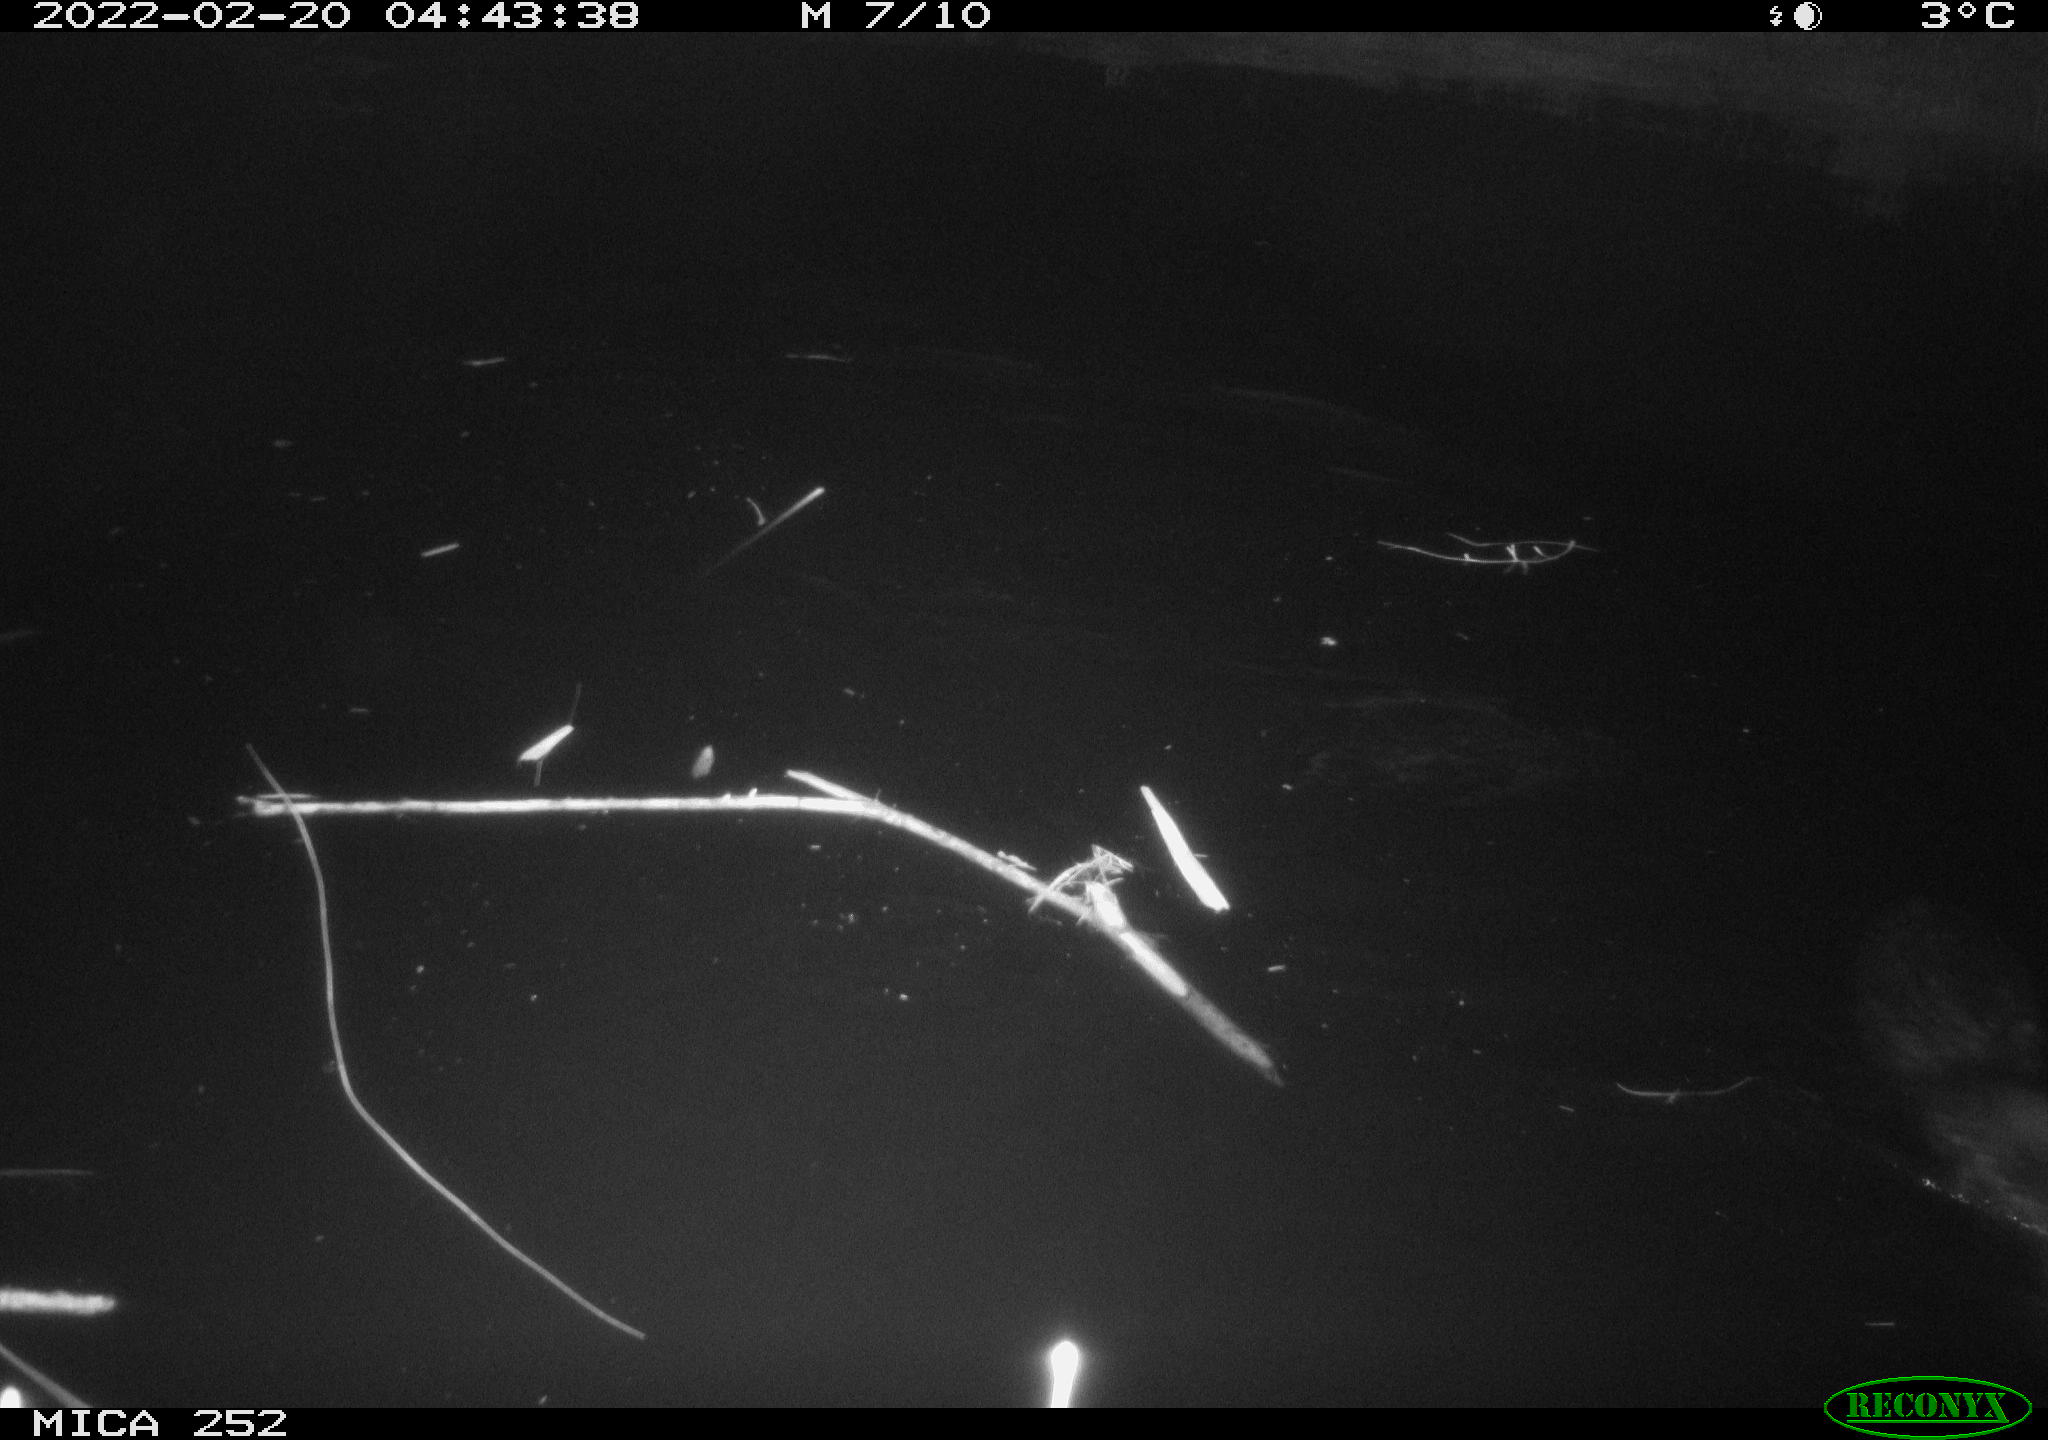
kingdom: Animalia
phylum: Chordata
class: Mammalia
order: Rodentia
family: Castoridae
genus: Castor
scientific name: Castor fiber
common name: Eurasian beaver
